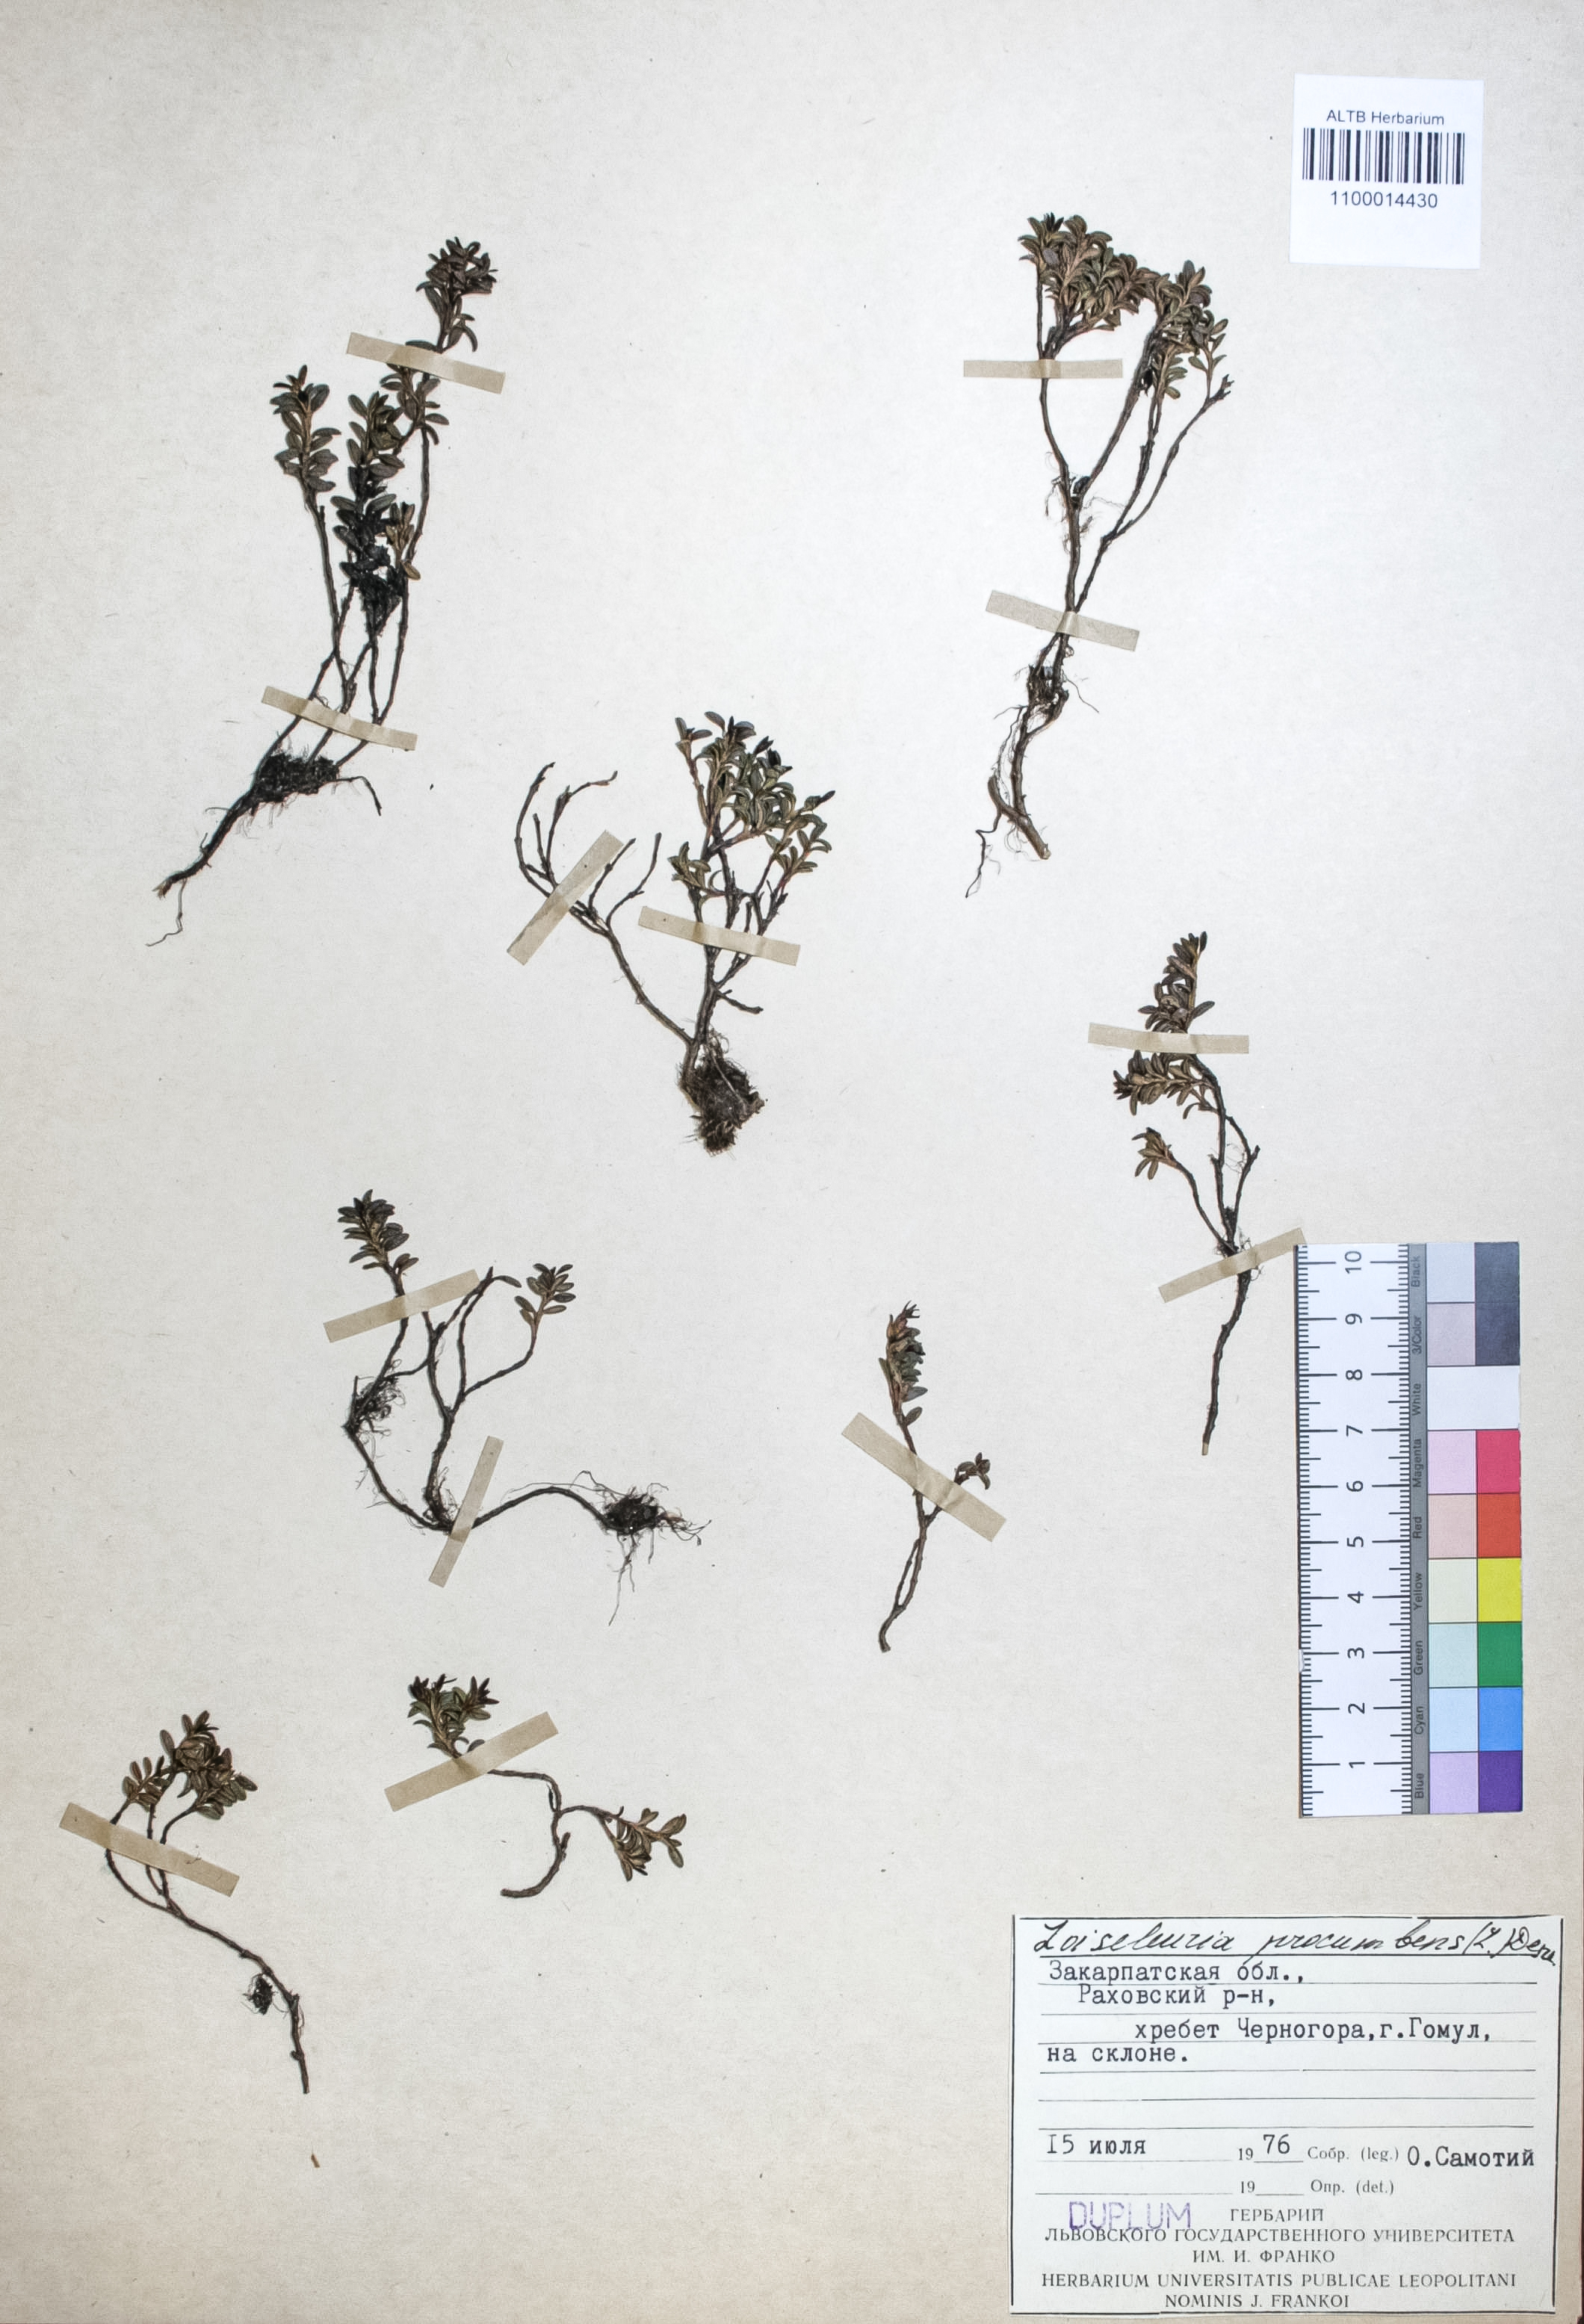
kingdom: Plantae
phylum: Tracheophyta
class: Magnoliopsida
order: Ericales
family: Ericaceae
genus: Kalmia
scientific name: Kalmia procumbens
